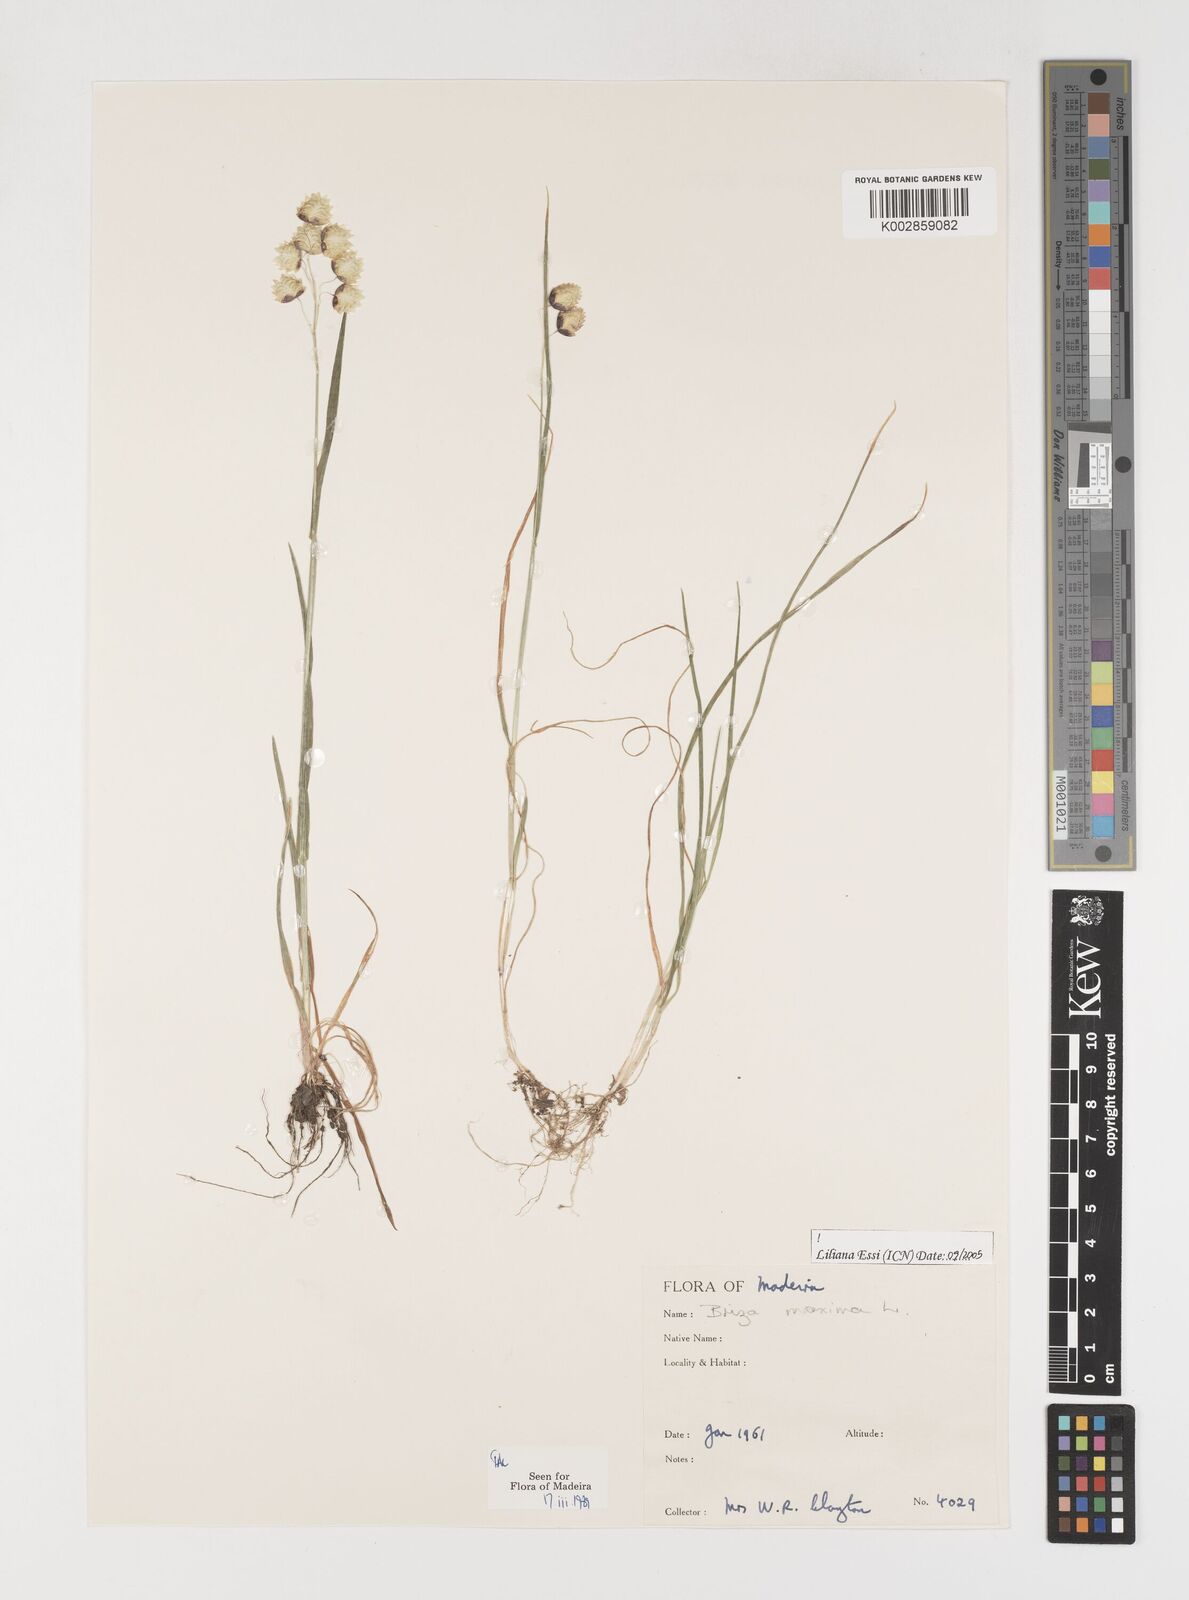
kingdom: Plantae
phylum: Tracheophyta
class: Liliopsida
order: Poales
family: Poaceae
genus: Briza
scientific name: Briza maxima
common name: Big quakinggrass
